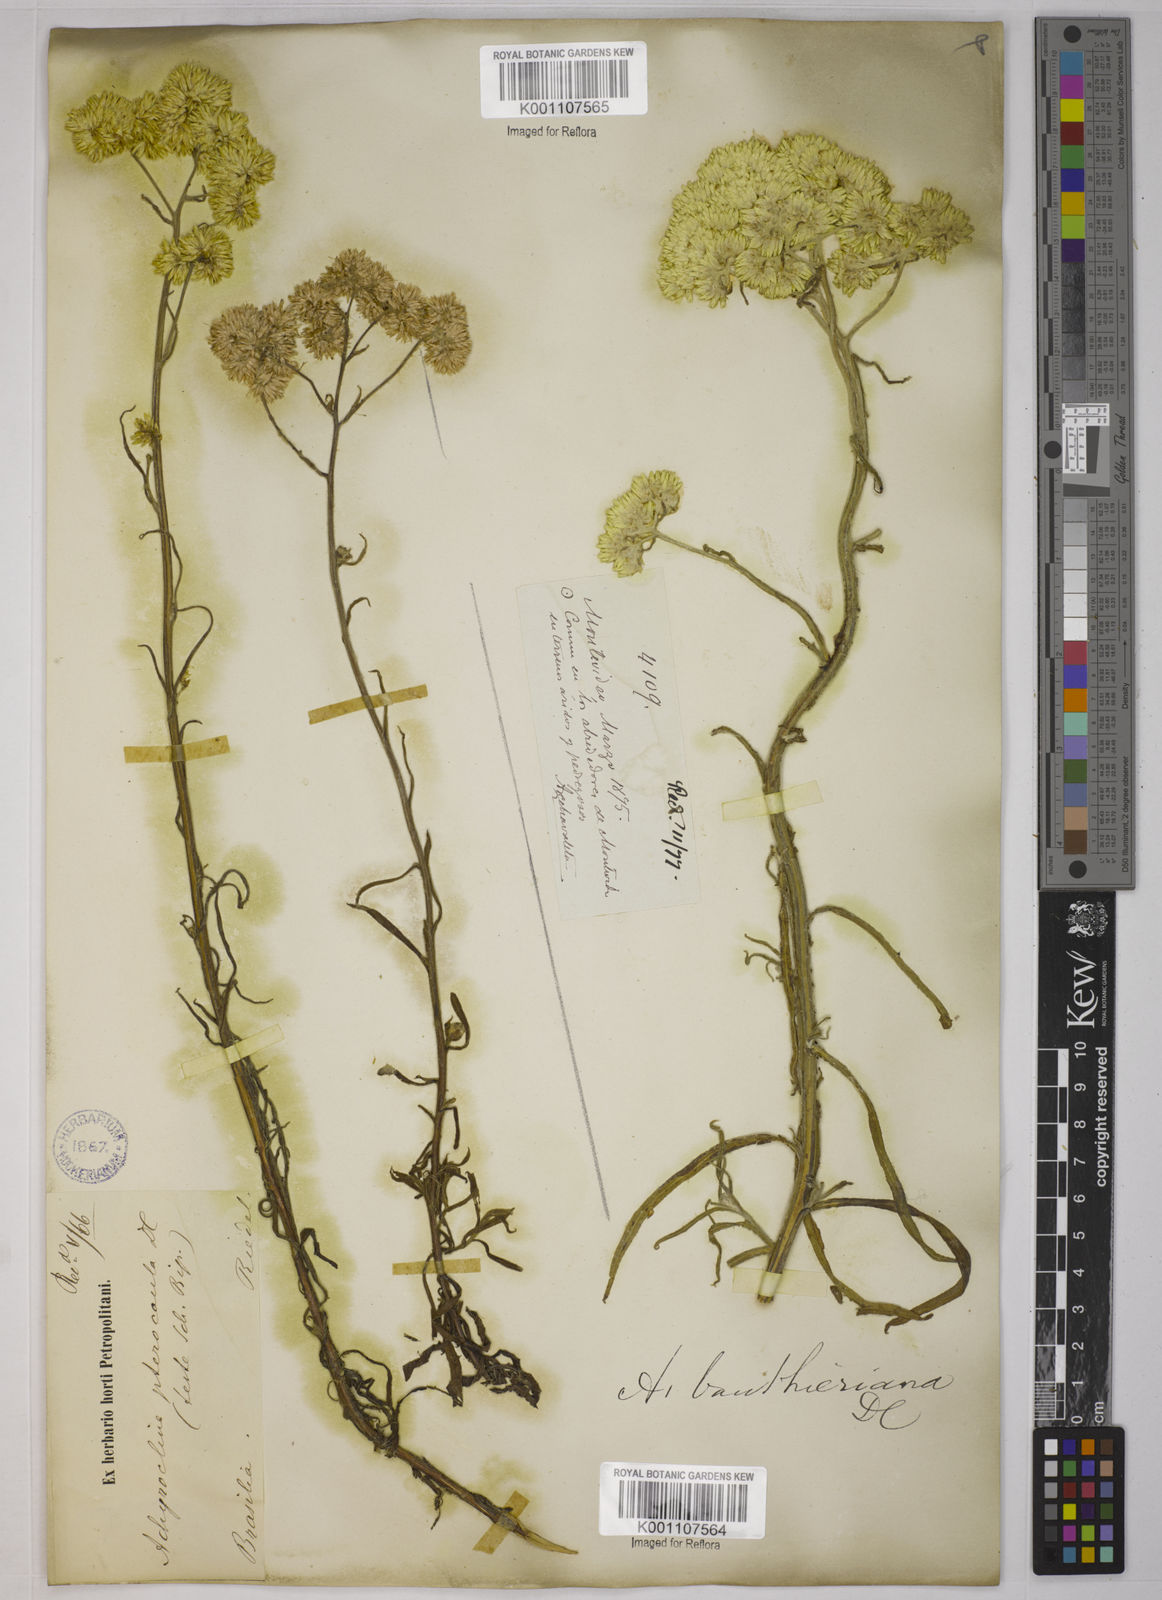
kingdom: Plantae
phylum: Tracheophyta
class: Magnoliopsida
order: Asterales
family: Asteraceae
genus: Achyrocline
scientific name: Achyrocline vauthieriana
